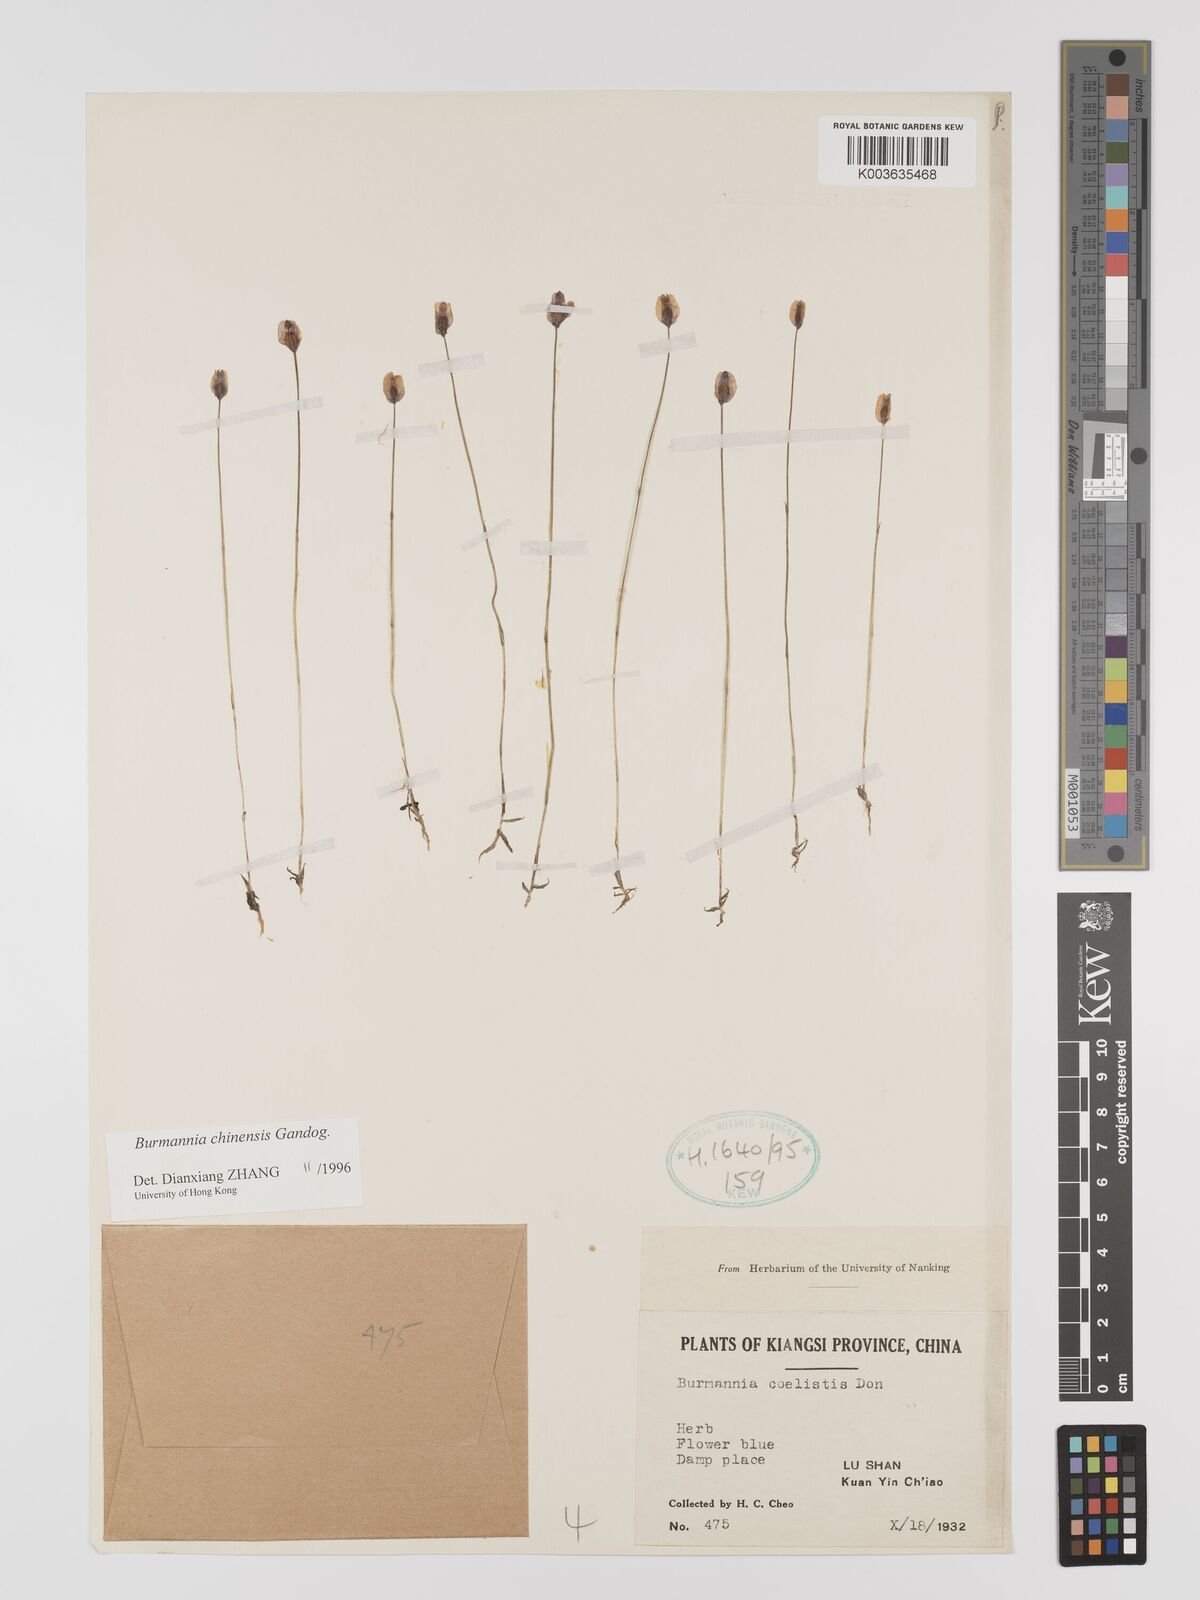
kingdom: Plantae
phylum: Tracheophyta
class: Liliopsida
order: Dioscoreales
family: Burmanniaceae
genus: Burmannia
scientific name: Burmannia coelestis
